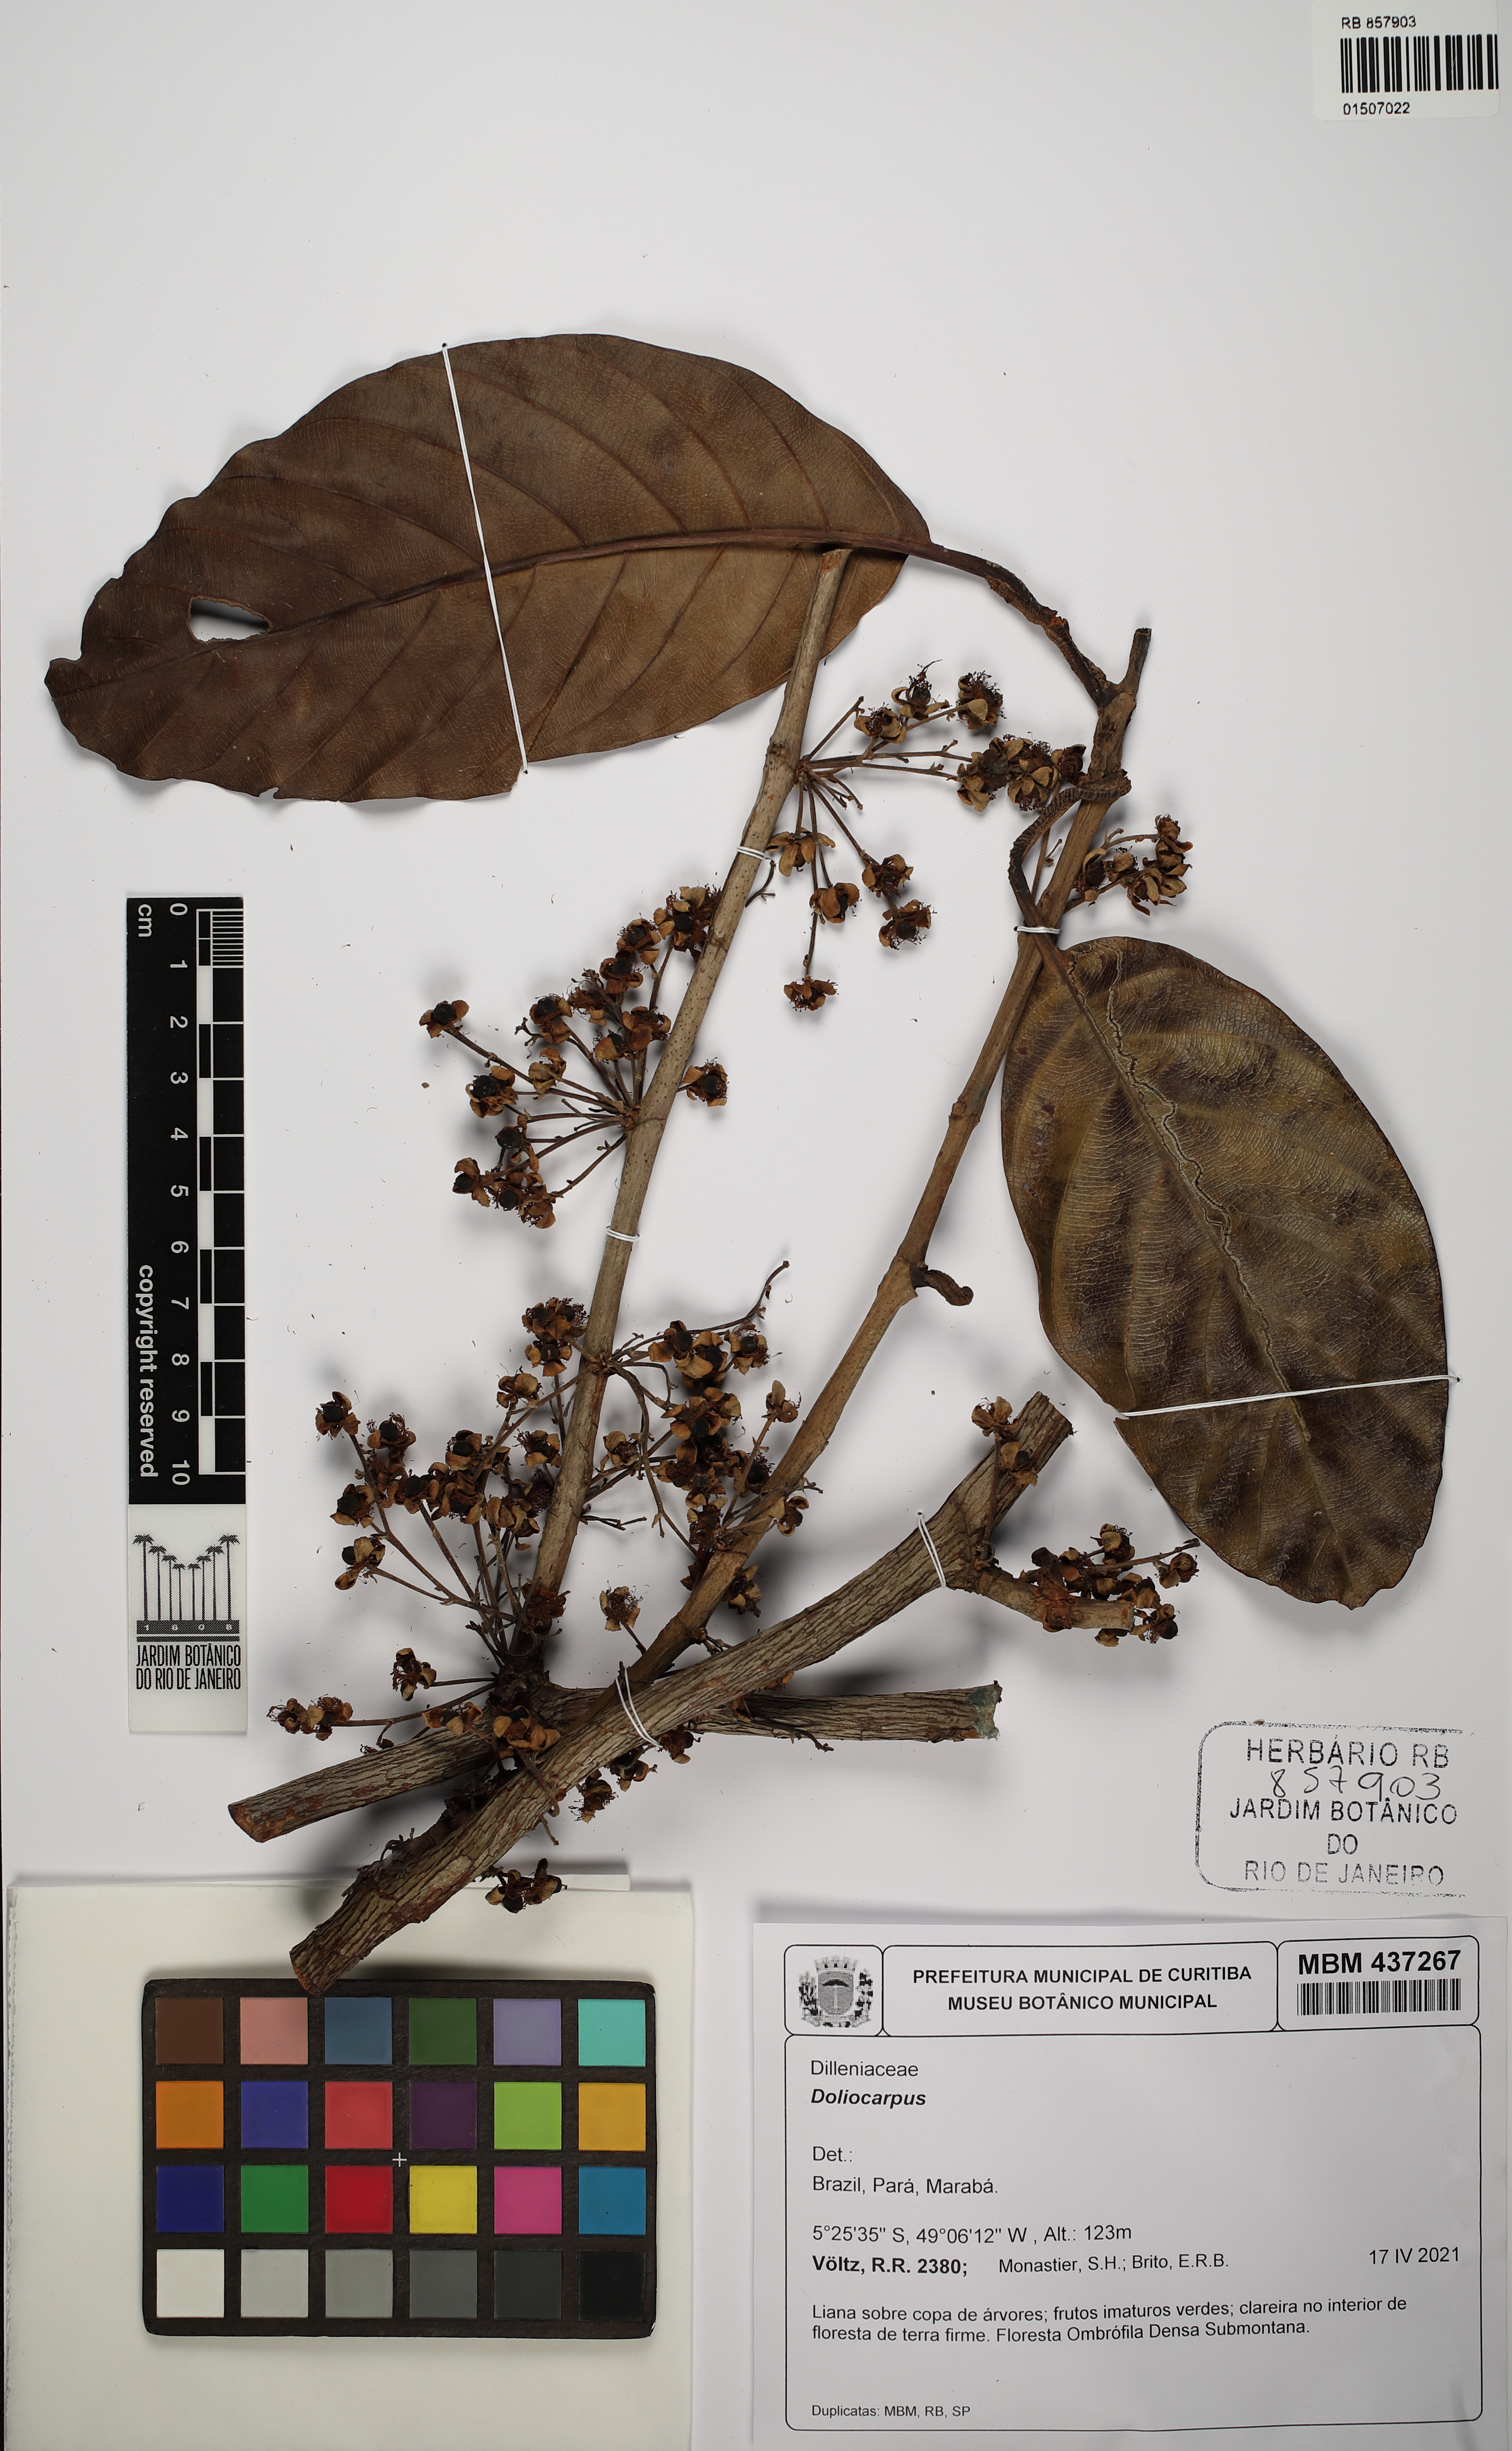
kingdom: Plantae
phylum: Tracheophyta
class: Magnoliopsida
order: Dilleniales
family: Dilleniaceae
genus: Doliocarpus
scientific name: Doliocarpus
